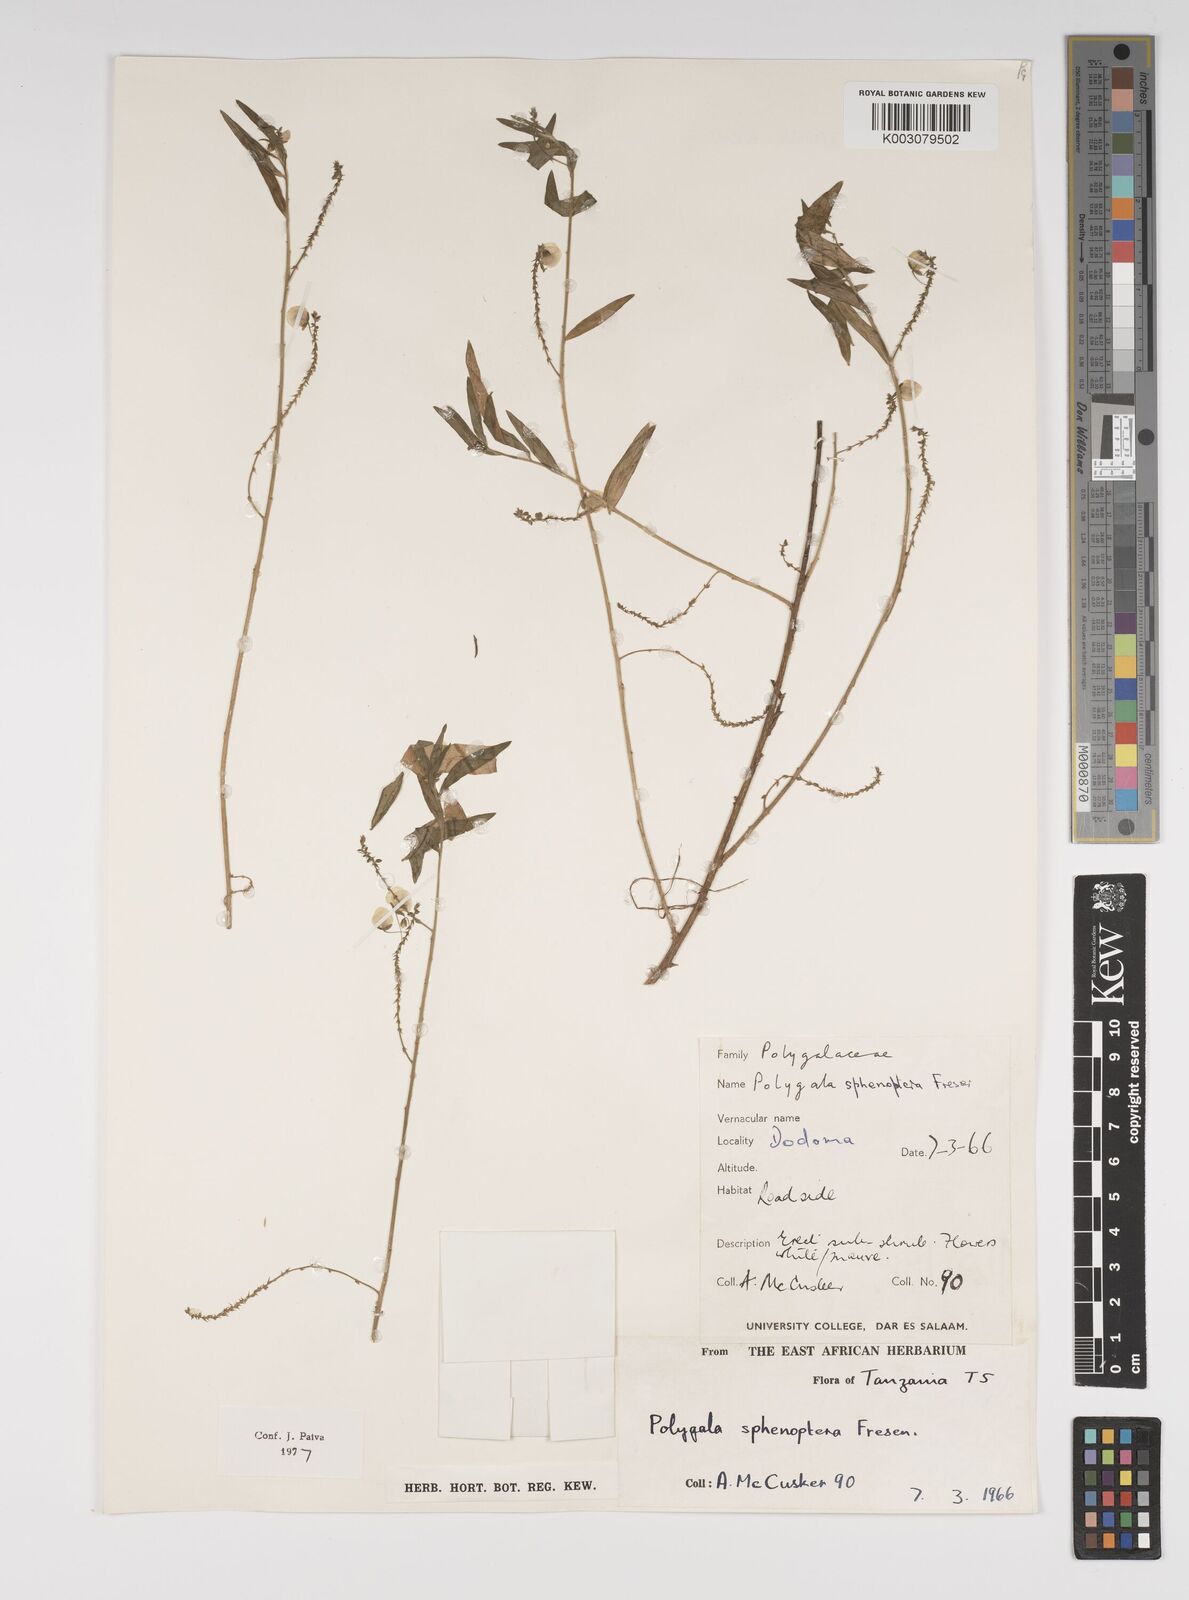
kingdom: Plantae
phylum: Tracheophyta
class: Magnoliopsida
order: Fabales
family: Polygalaceae
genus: Polygala
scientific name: Polygala sphenoptera
